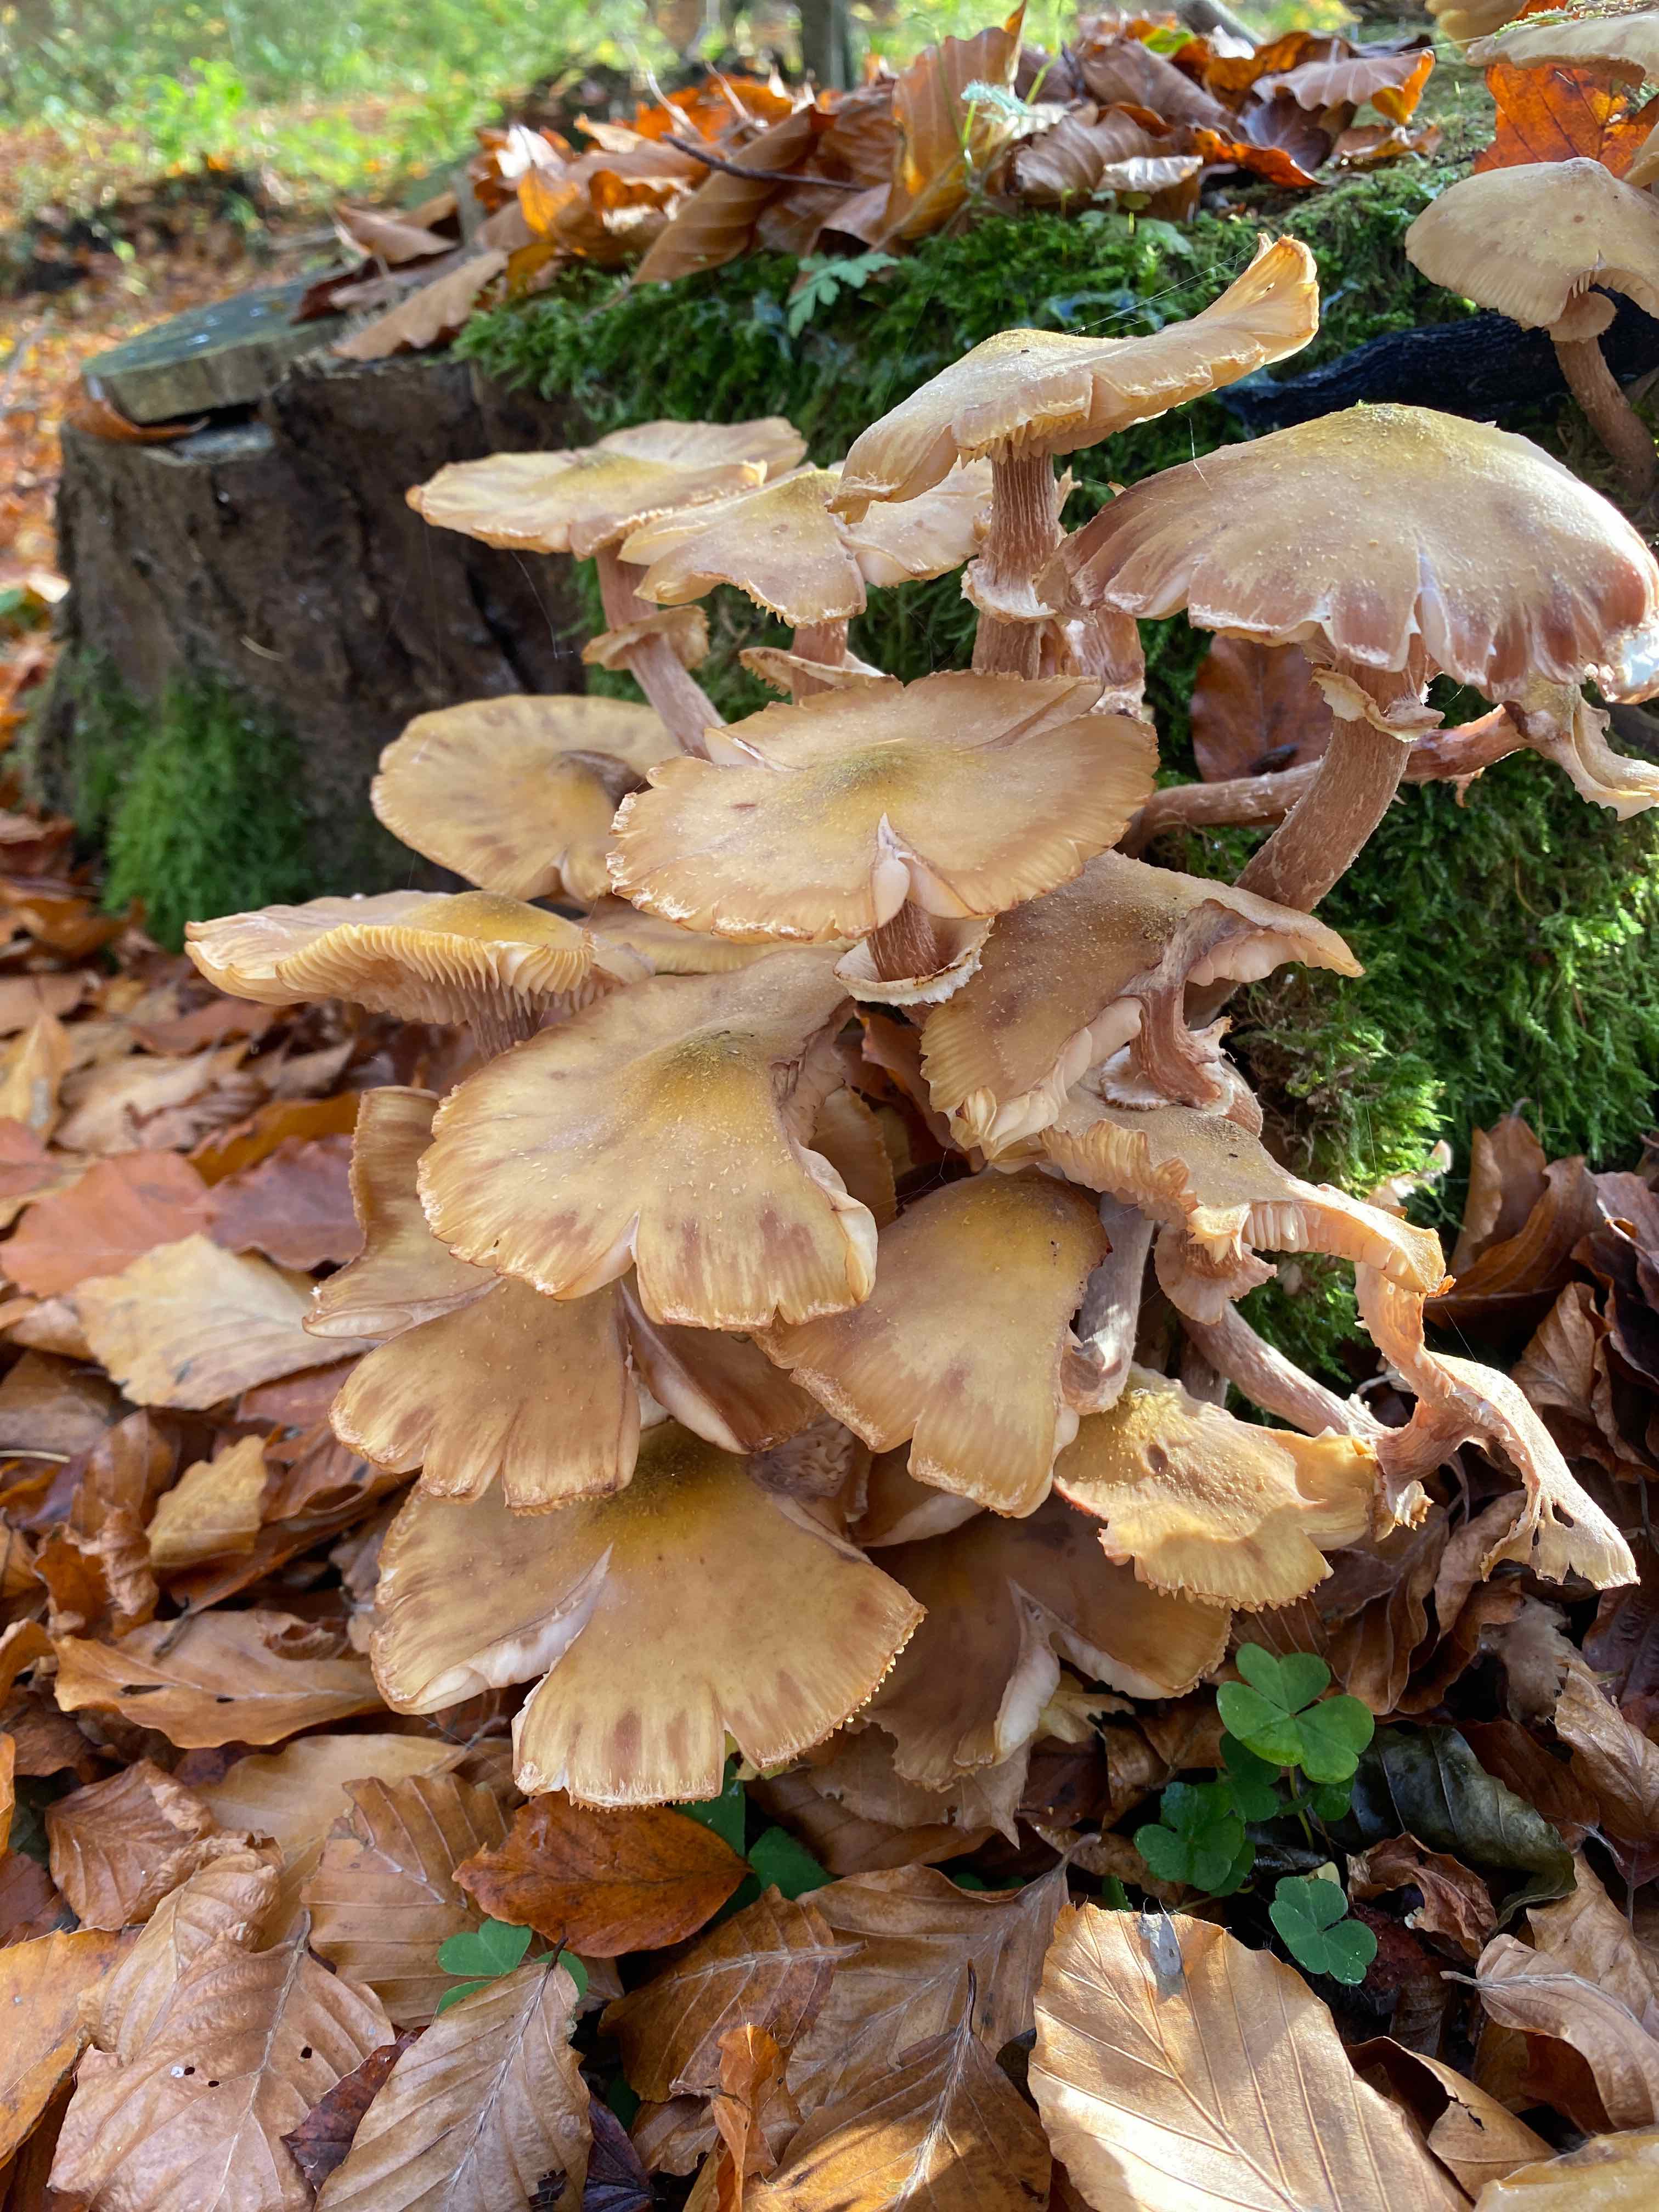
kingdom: Fungi
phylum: Basidiomycota
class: Agaricomycetes
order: Agaricales
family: Physalacriaceae
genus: Armillaria
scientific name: Armillaria mellea
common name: ægte honningsvamp
